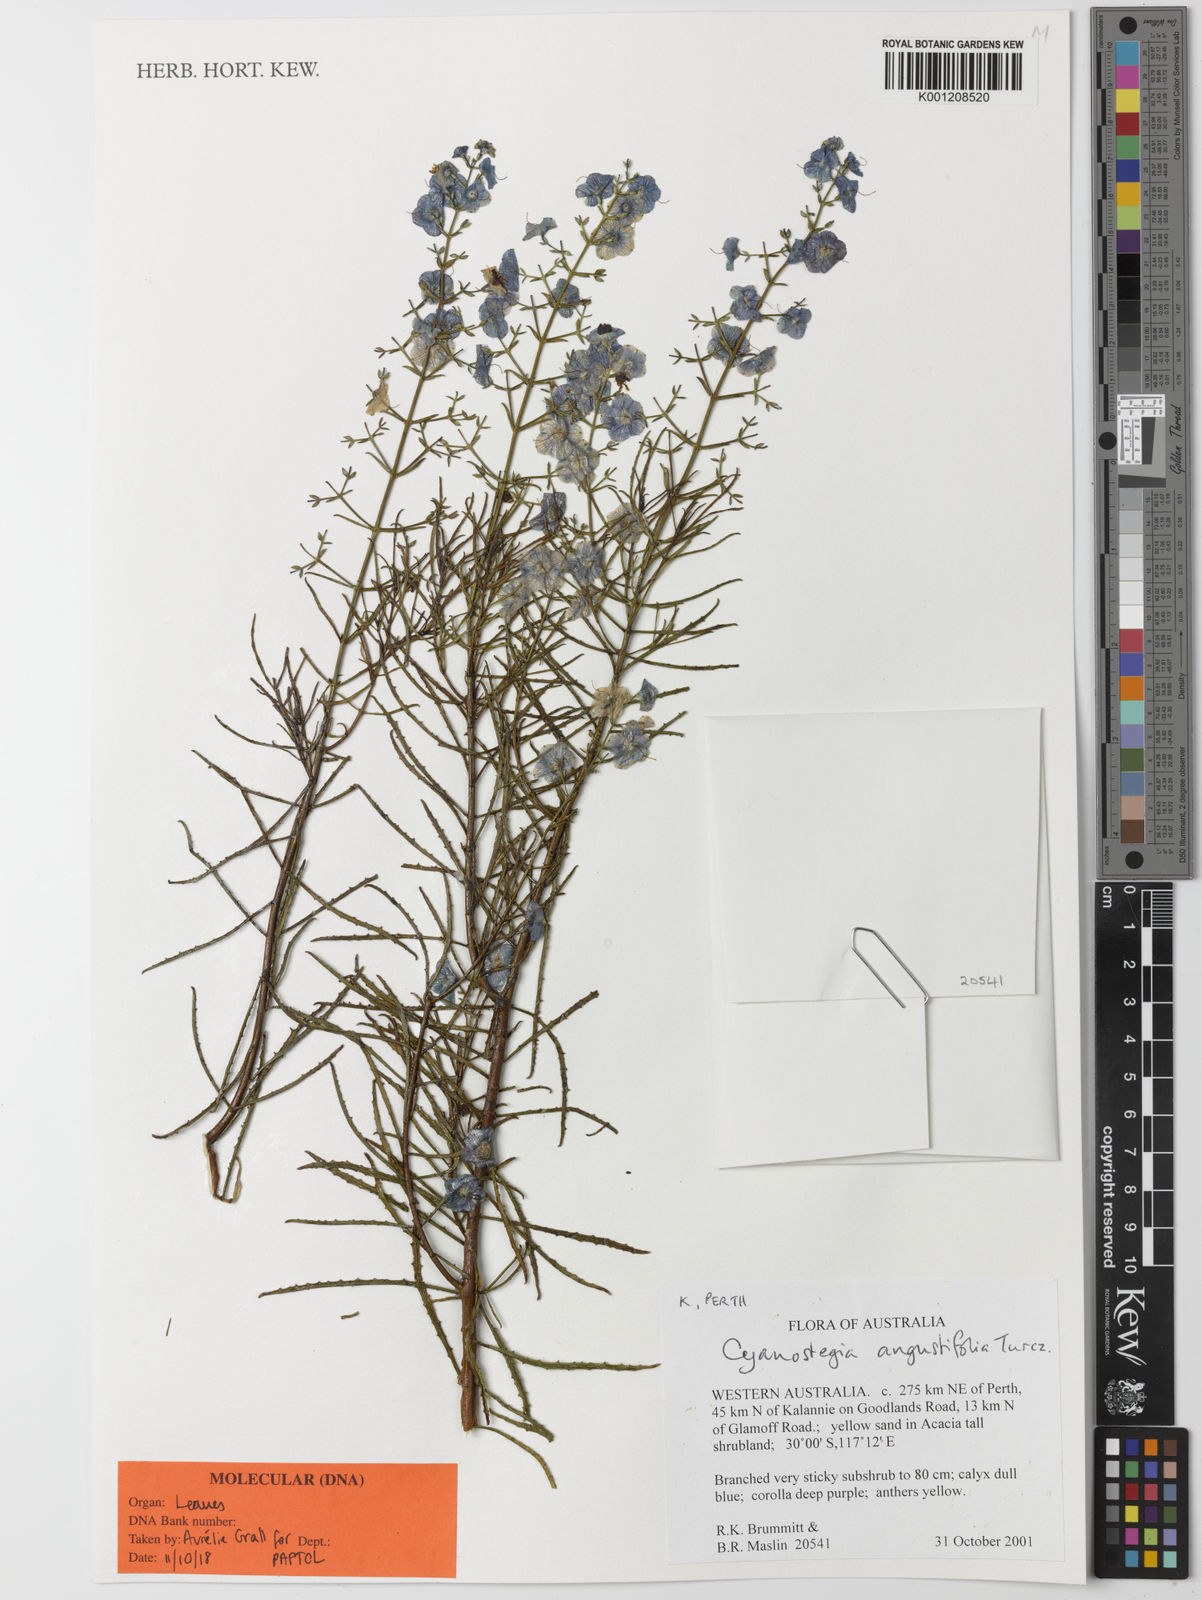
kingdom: Plantae
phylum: Tracheophyta
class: Magnoliopsida
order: Lamiales
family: Lamiaceae
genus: Cyanostegia
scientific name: Cyanostegia angustifolia
